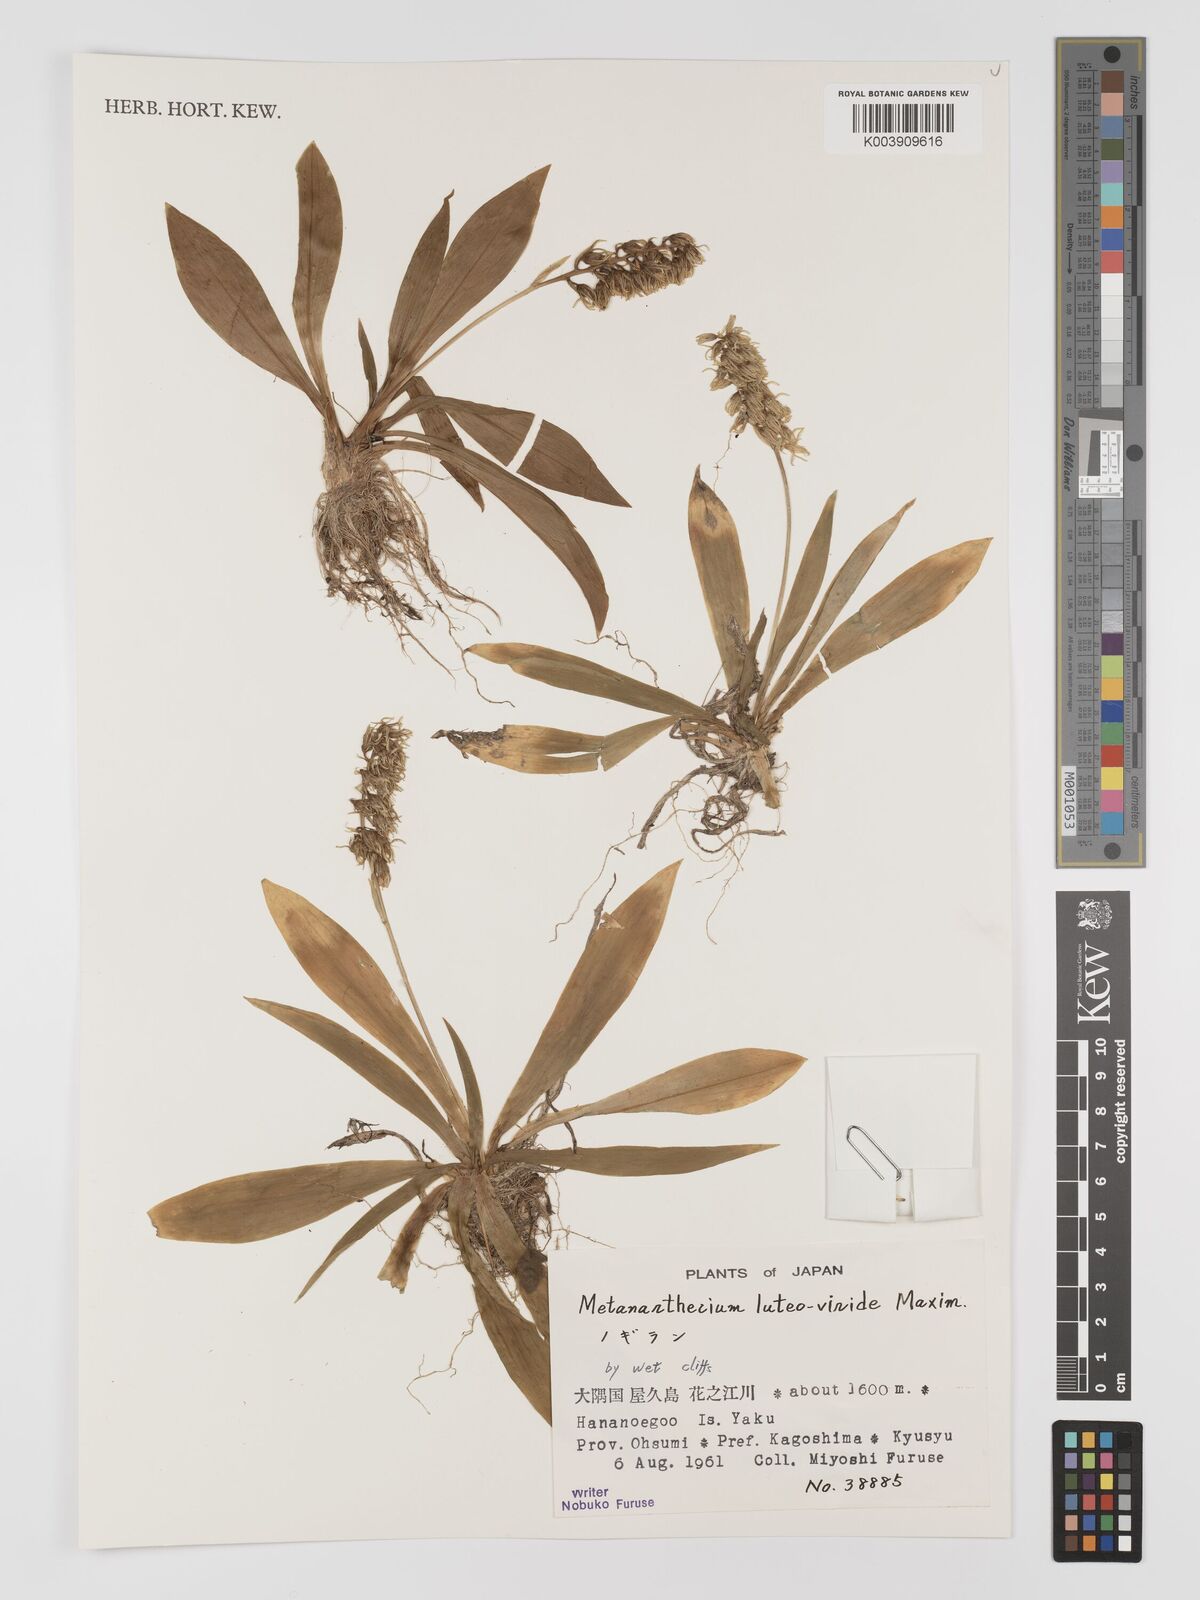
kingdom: Plantae
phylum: Tracheophyta
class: Liliopsida
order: Dioscoreales
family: Nartheciaceae
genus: Metanarthecium
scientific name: Metanarthecium luteoviride
